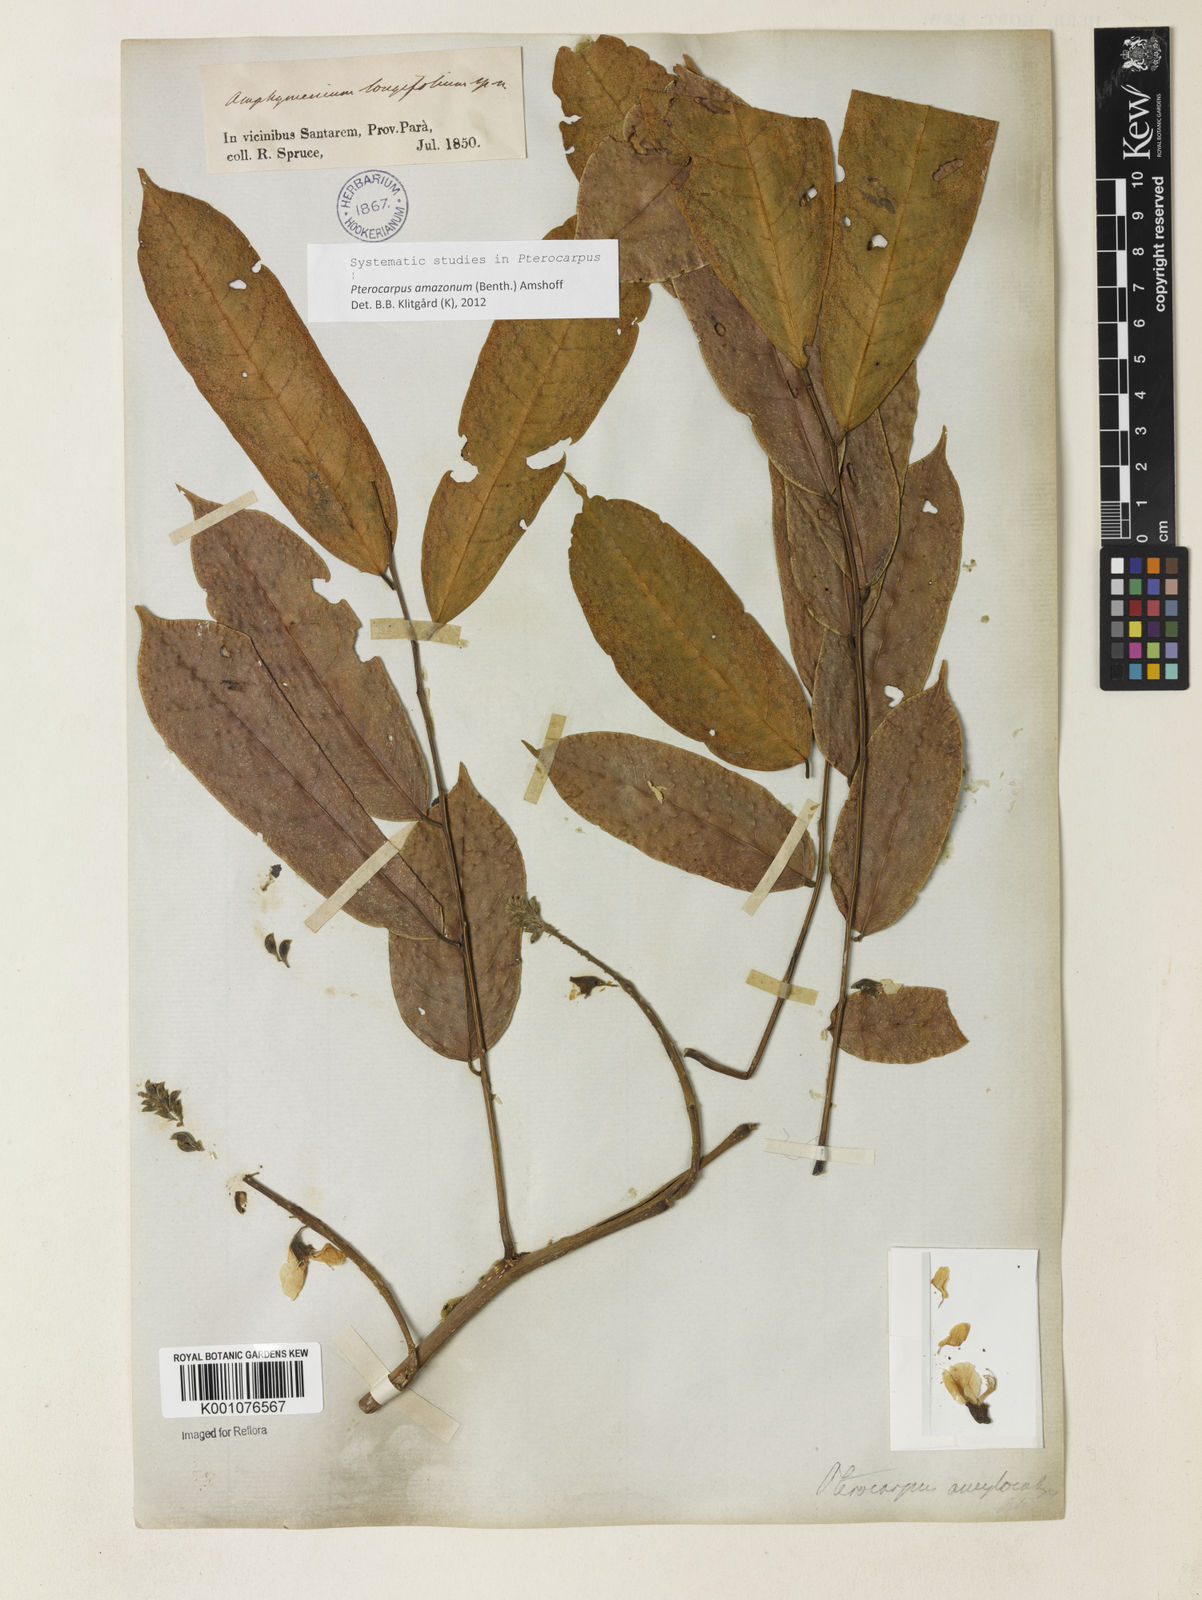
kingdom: Plantae
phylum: Tracheophyta
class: Magnoliopsida
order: Fabales
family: Fabaceae
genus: Pterocarpus
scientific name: Pterocarpus amazonum
